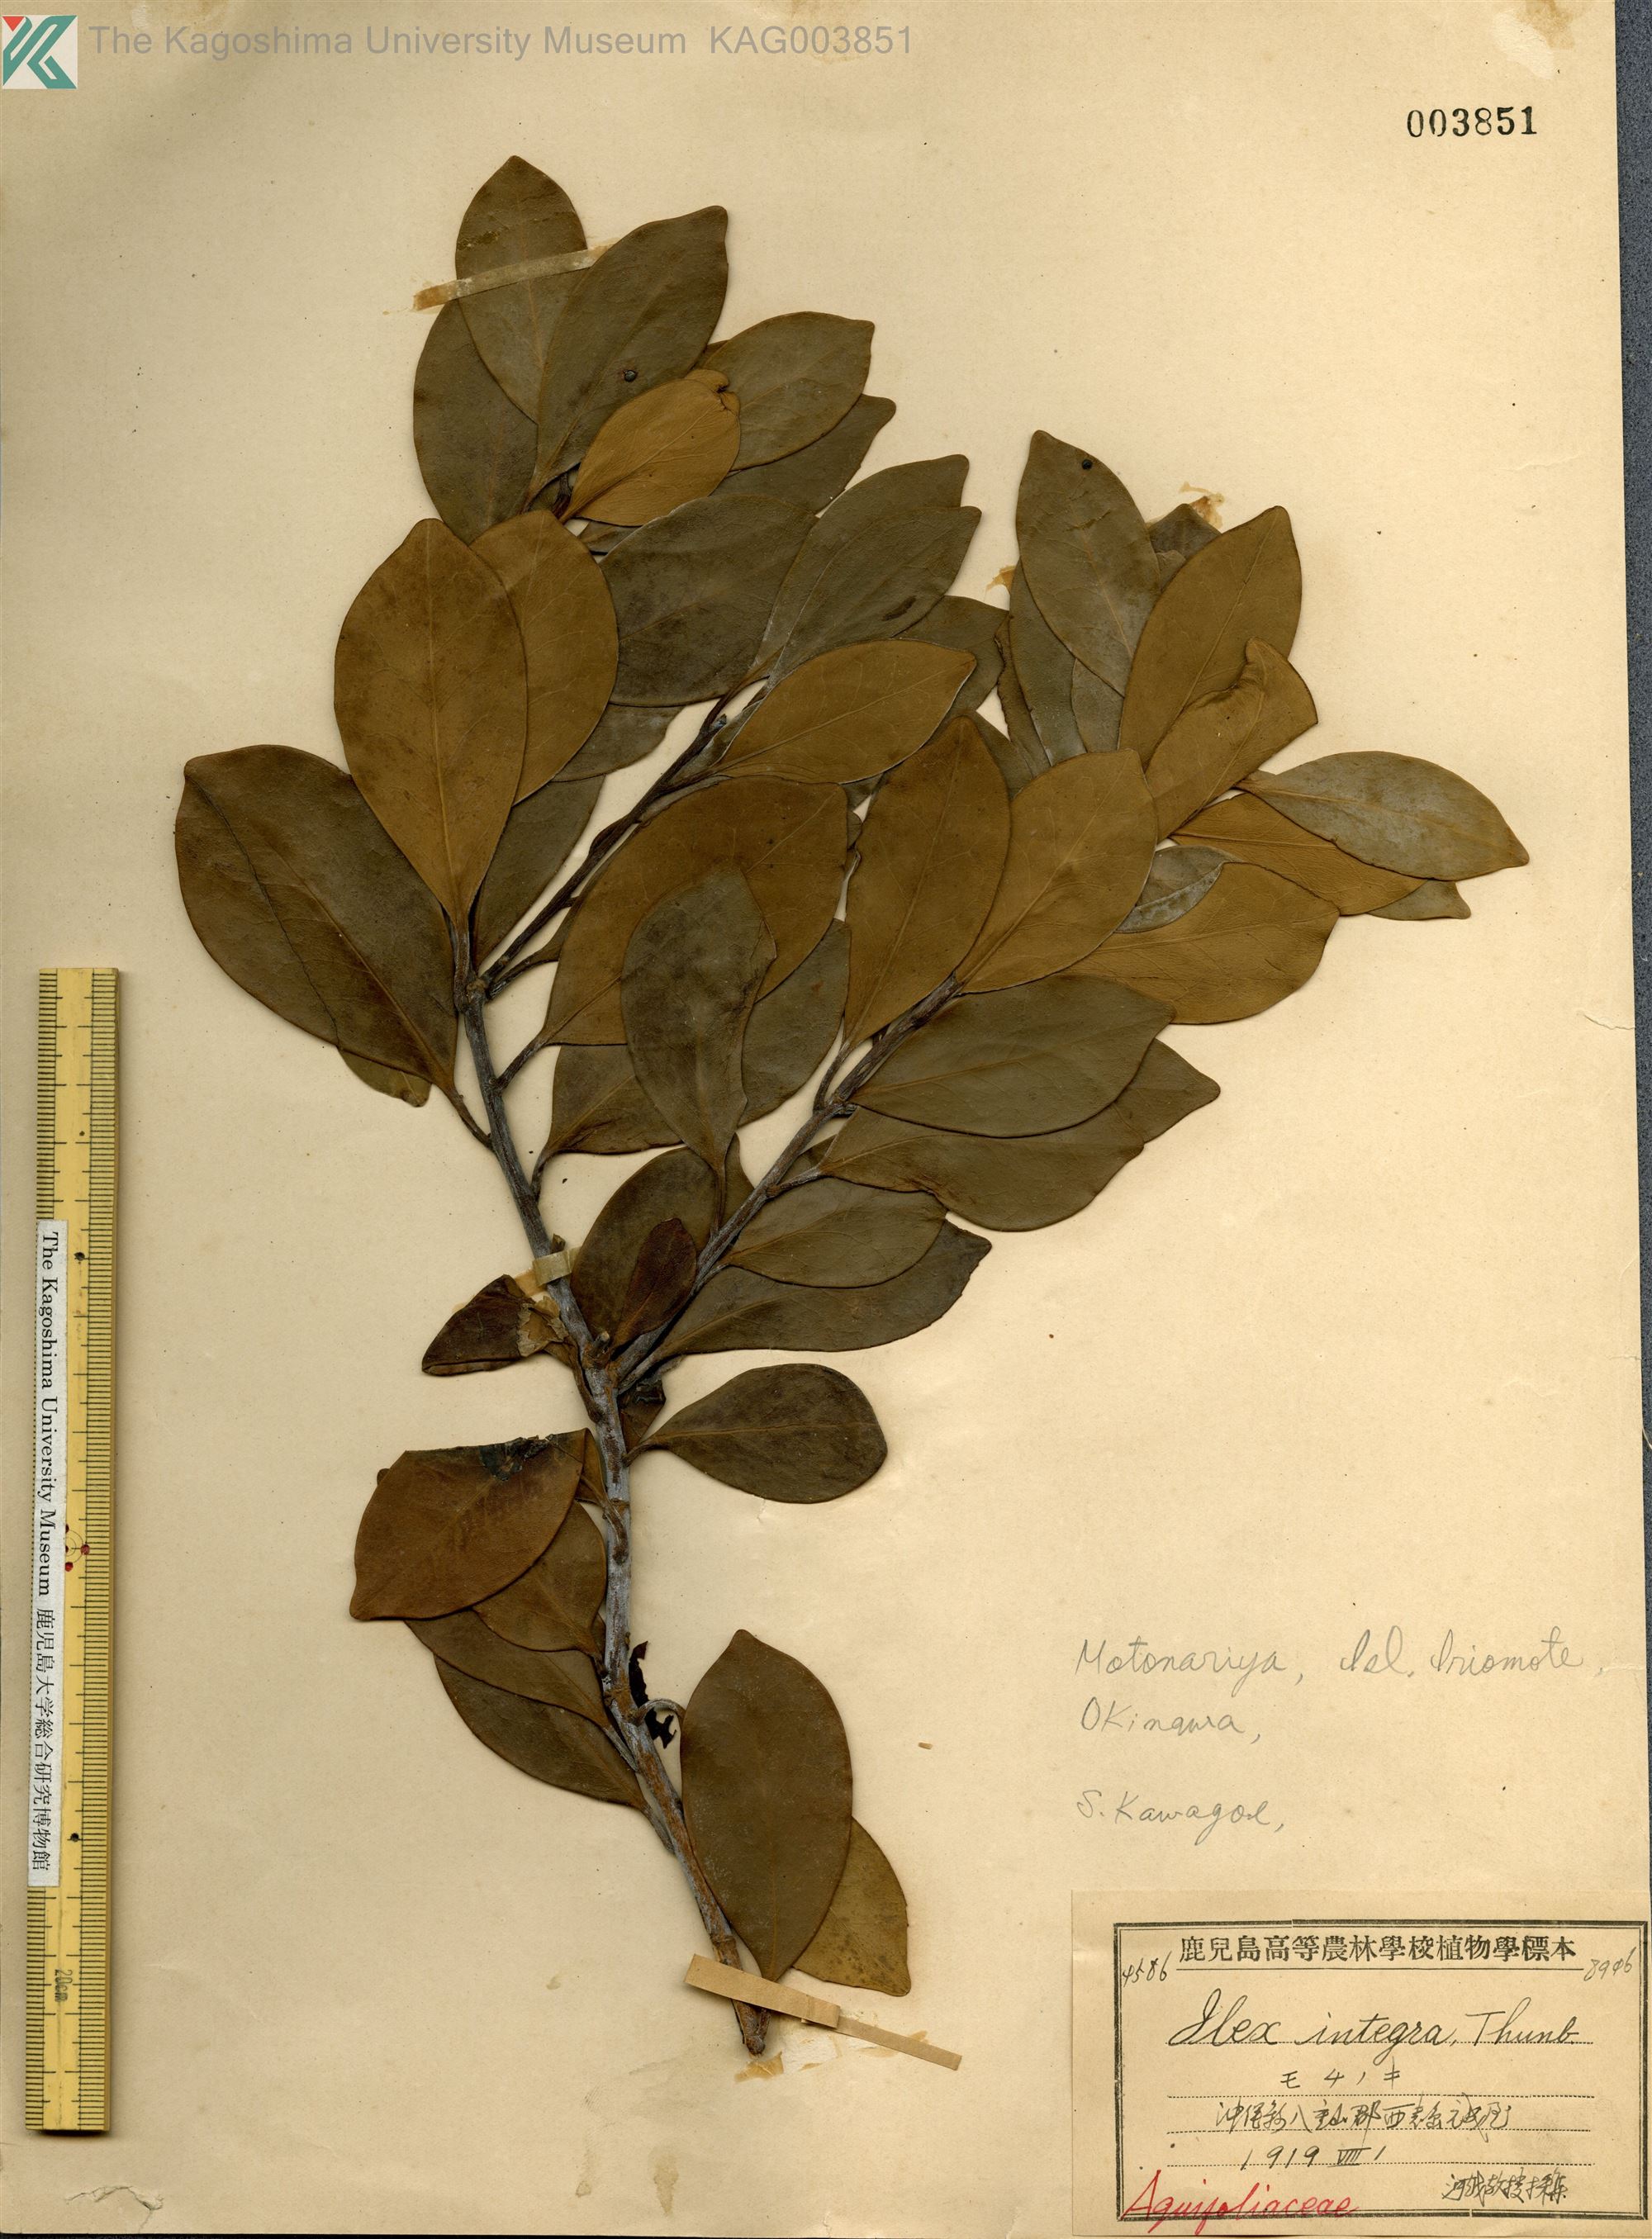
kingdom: Plantae
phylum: Tracheophyta
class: Magnoliopsida
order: Aquifoliales
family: Aquifoliaceae
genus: Ilex
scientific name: Ilex integra
